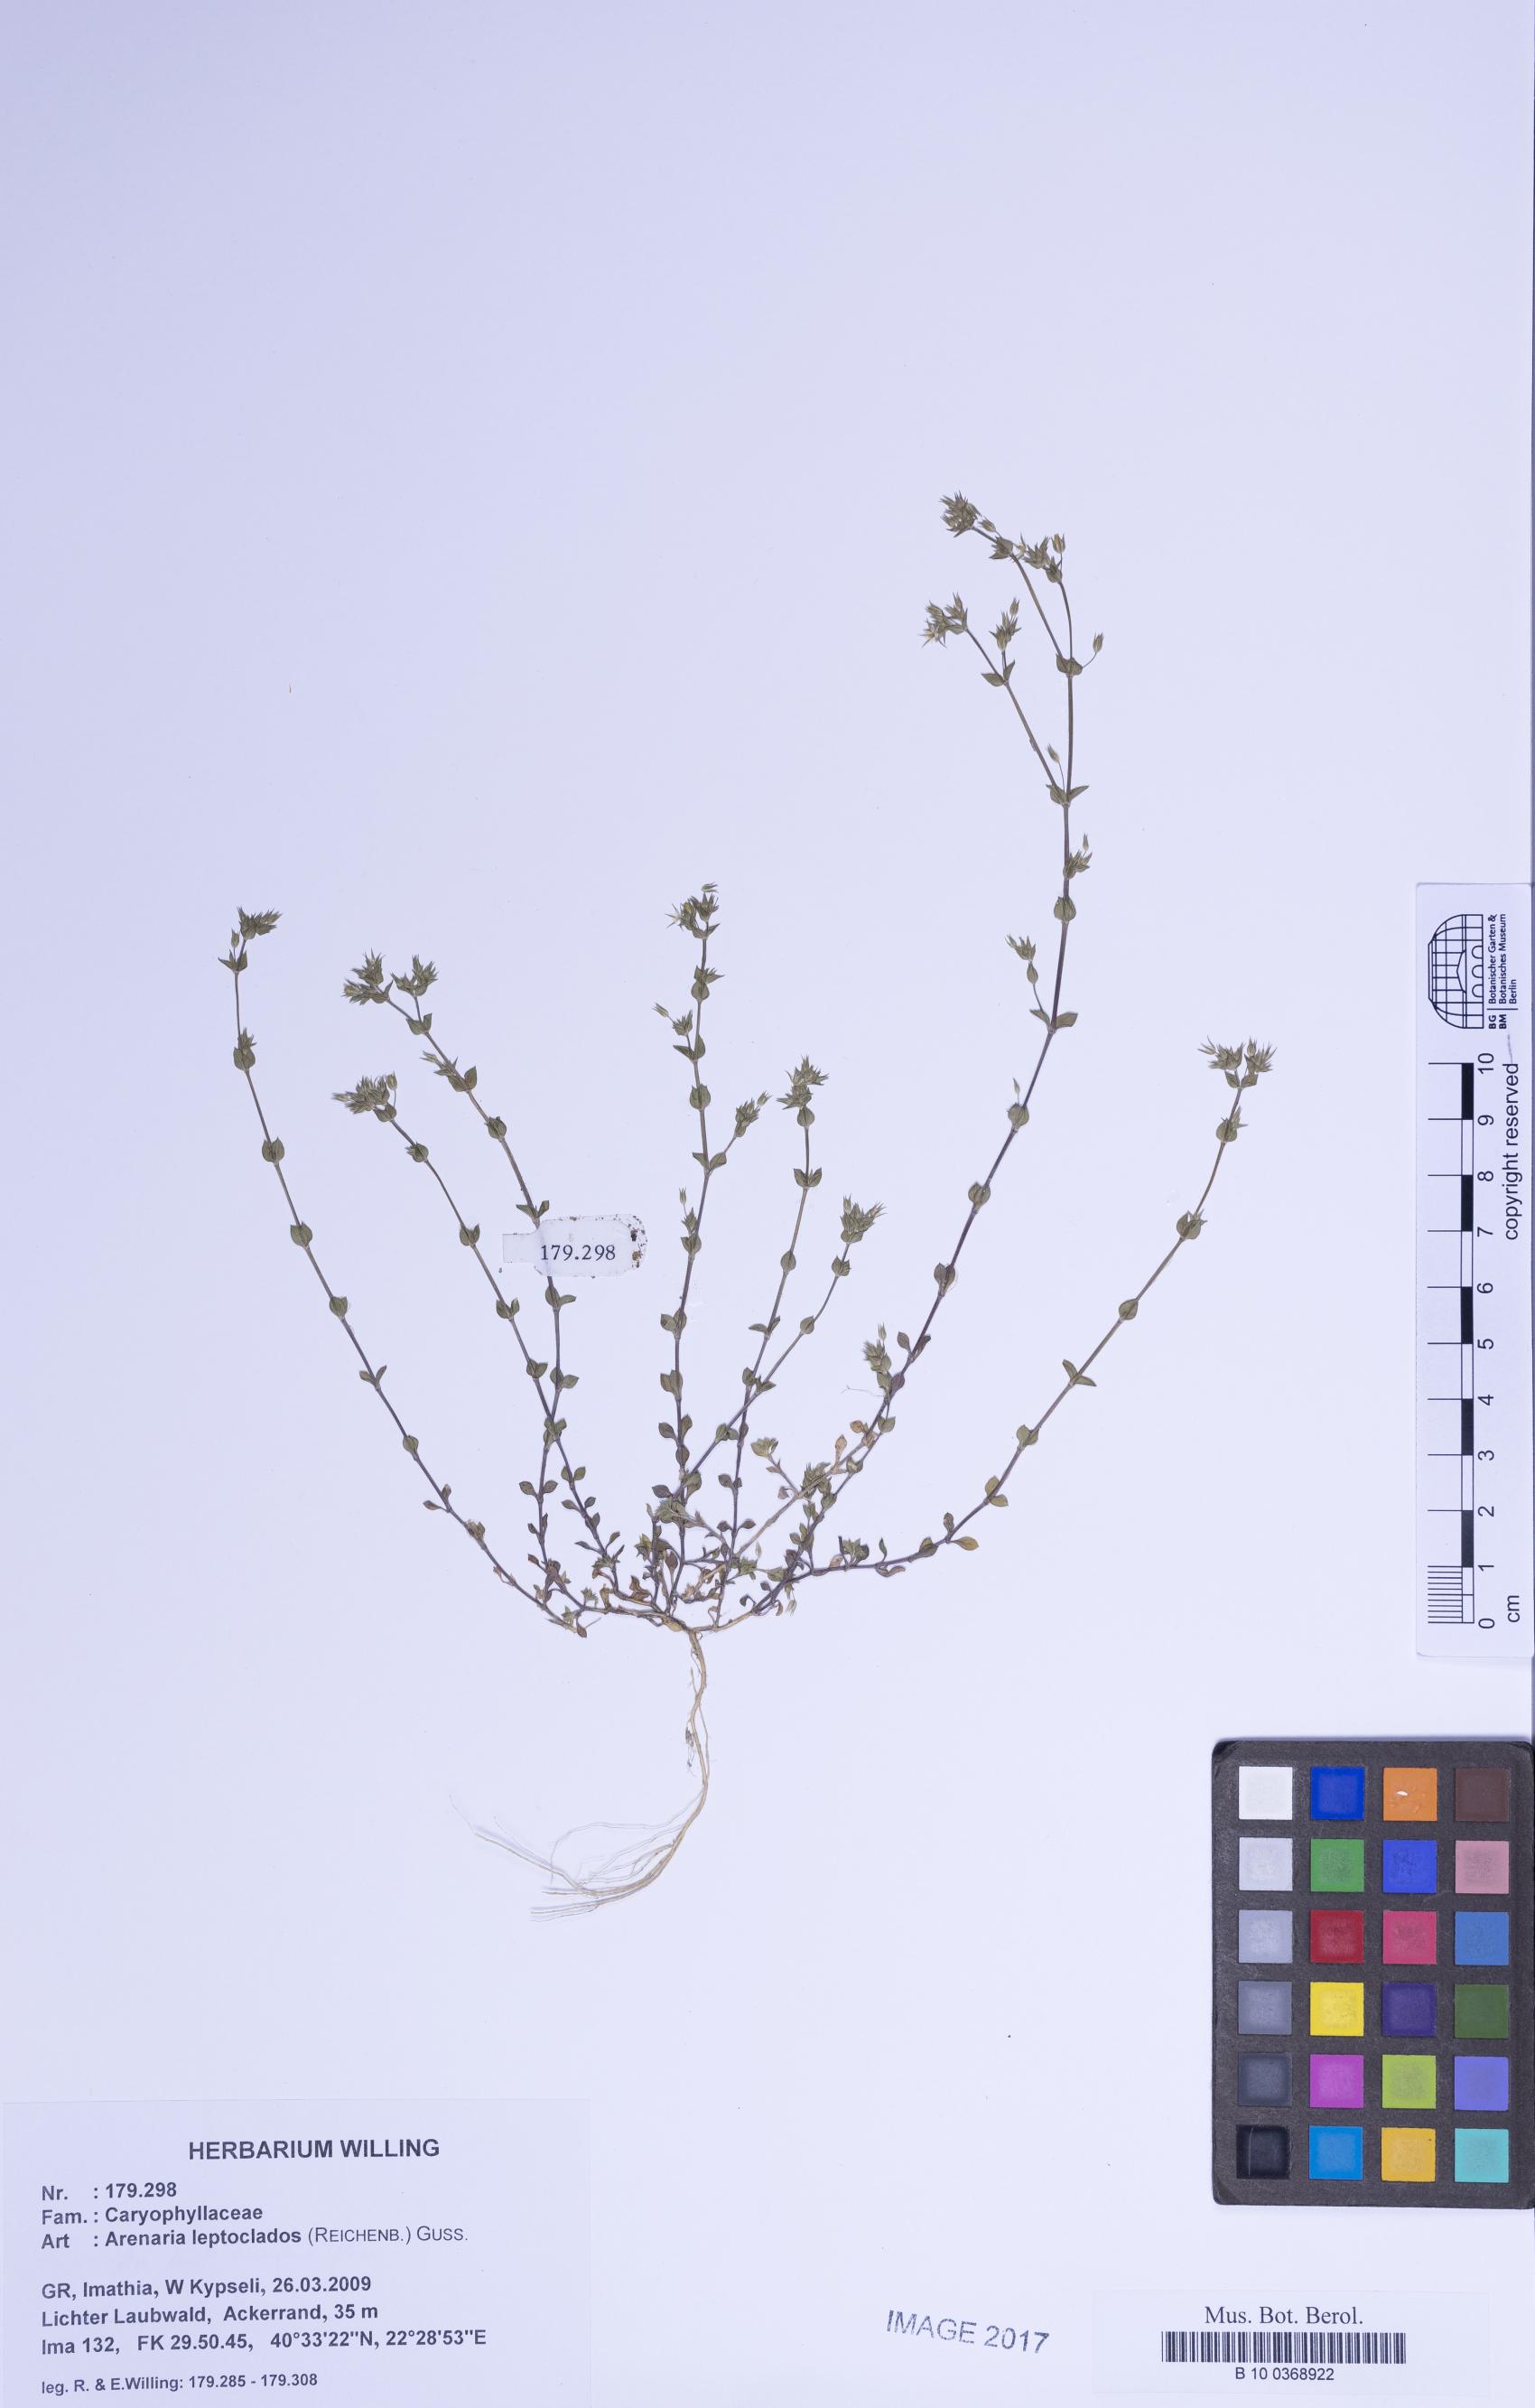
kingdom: Plantae
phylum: Tracheophyta
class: Magnoliopsida
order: Caryophyllales
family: Caryophyllaceae
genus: Arenaria
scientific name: Arenaria leptoclados
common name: Thyme-leaved sandwort
